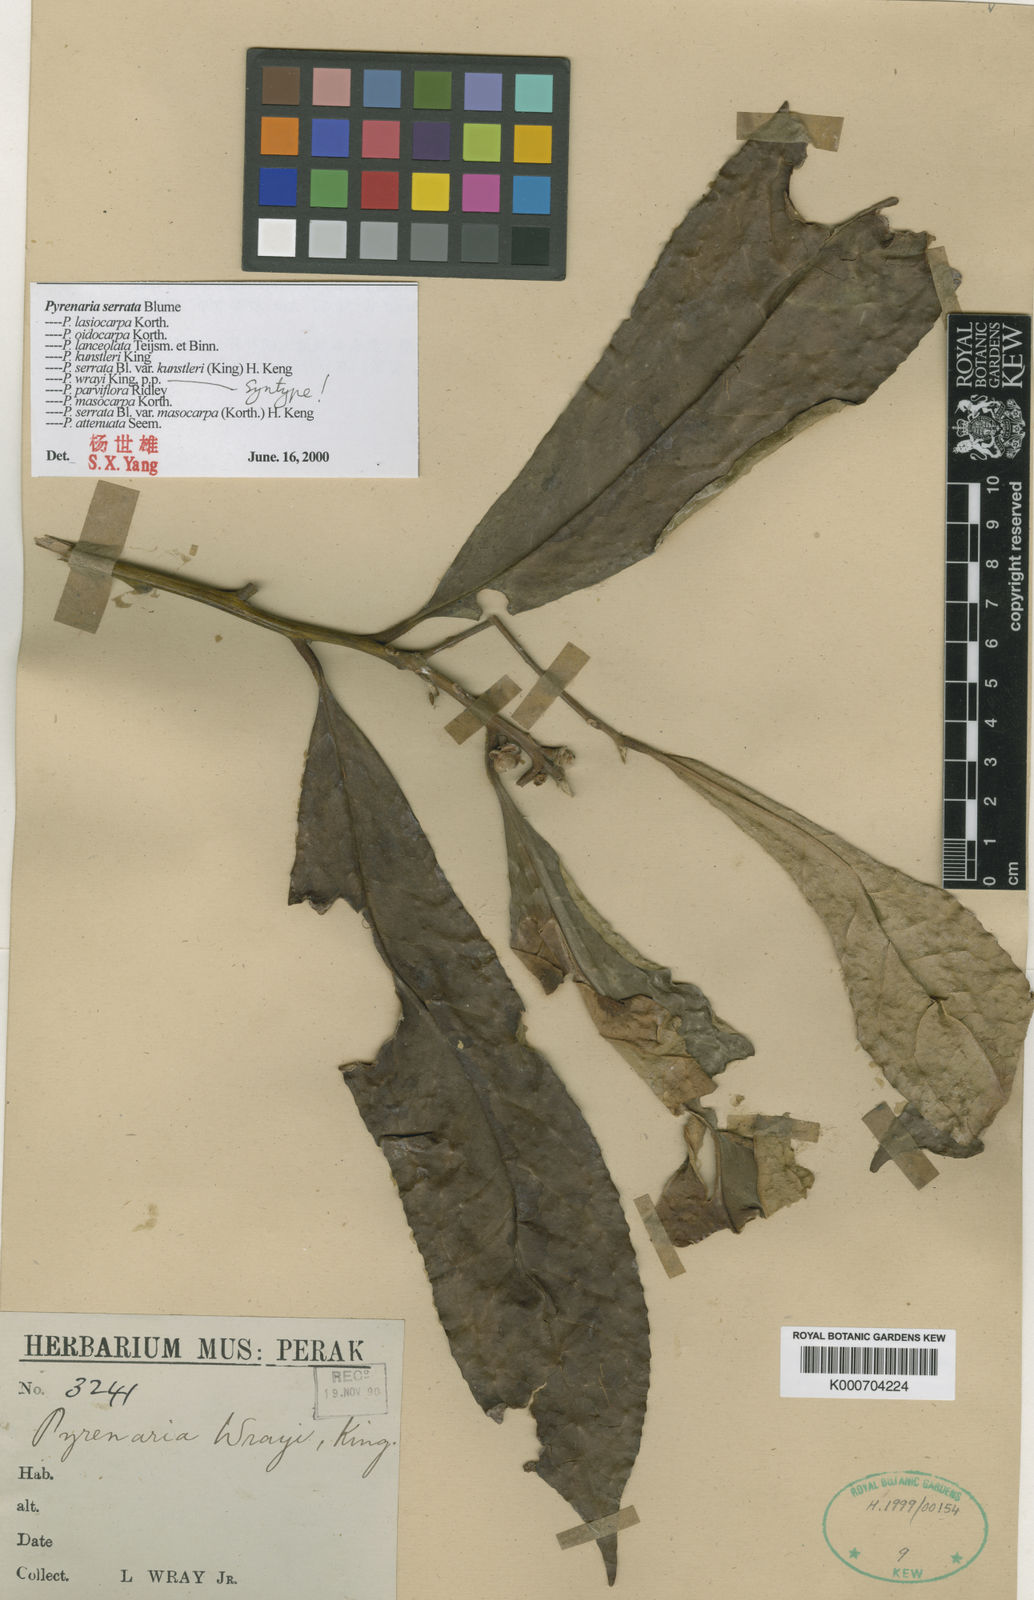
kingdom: Plantae
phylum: Tracheophyta
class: Magnoliopsida
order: Ericales
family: Theaceae
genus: Pyrenaria
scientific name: Pyrenaria serrata
